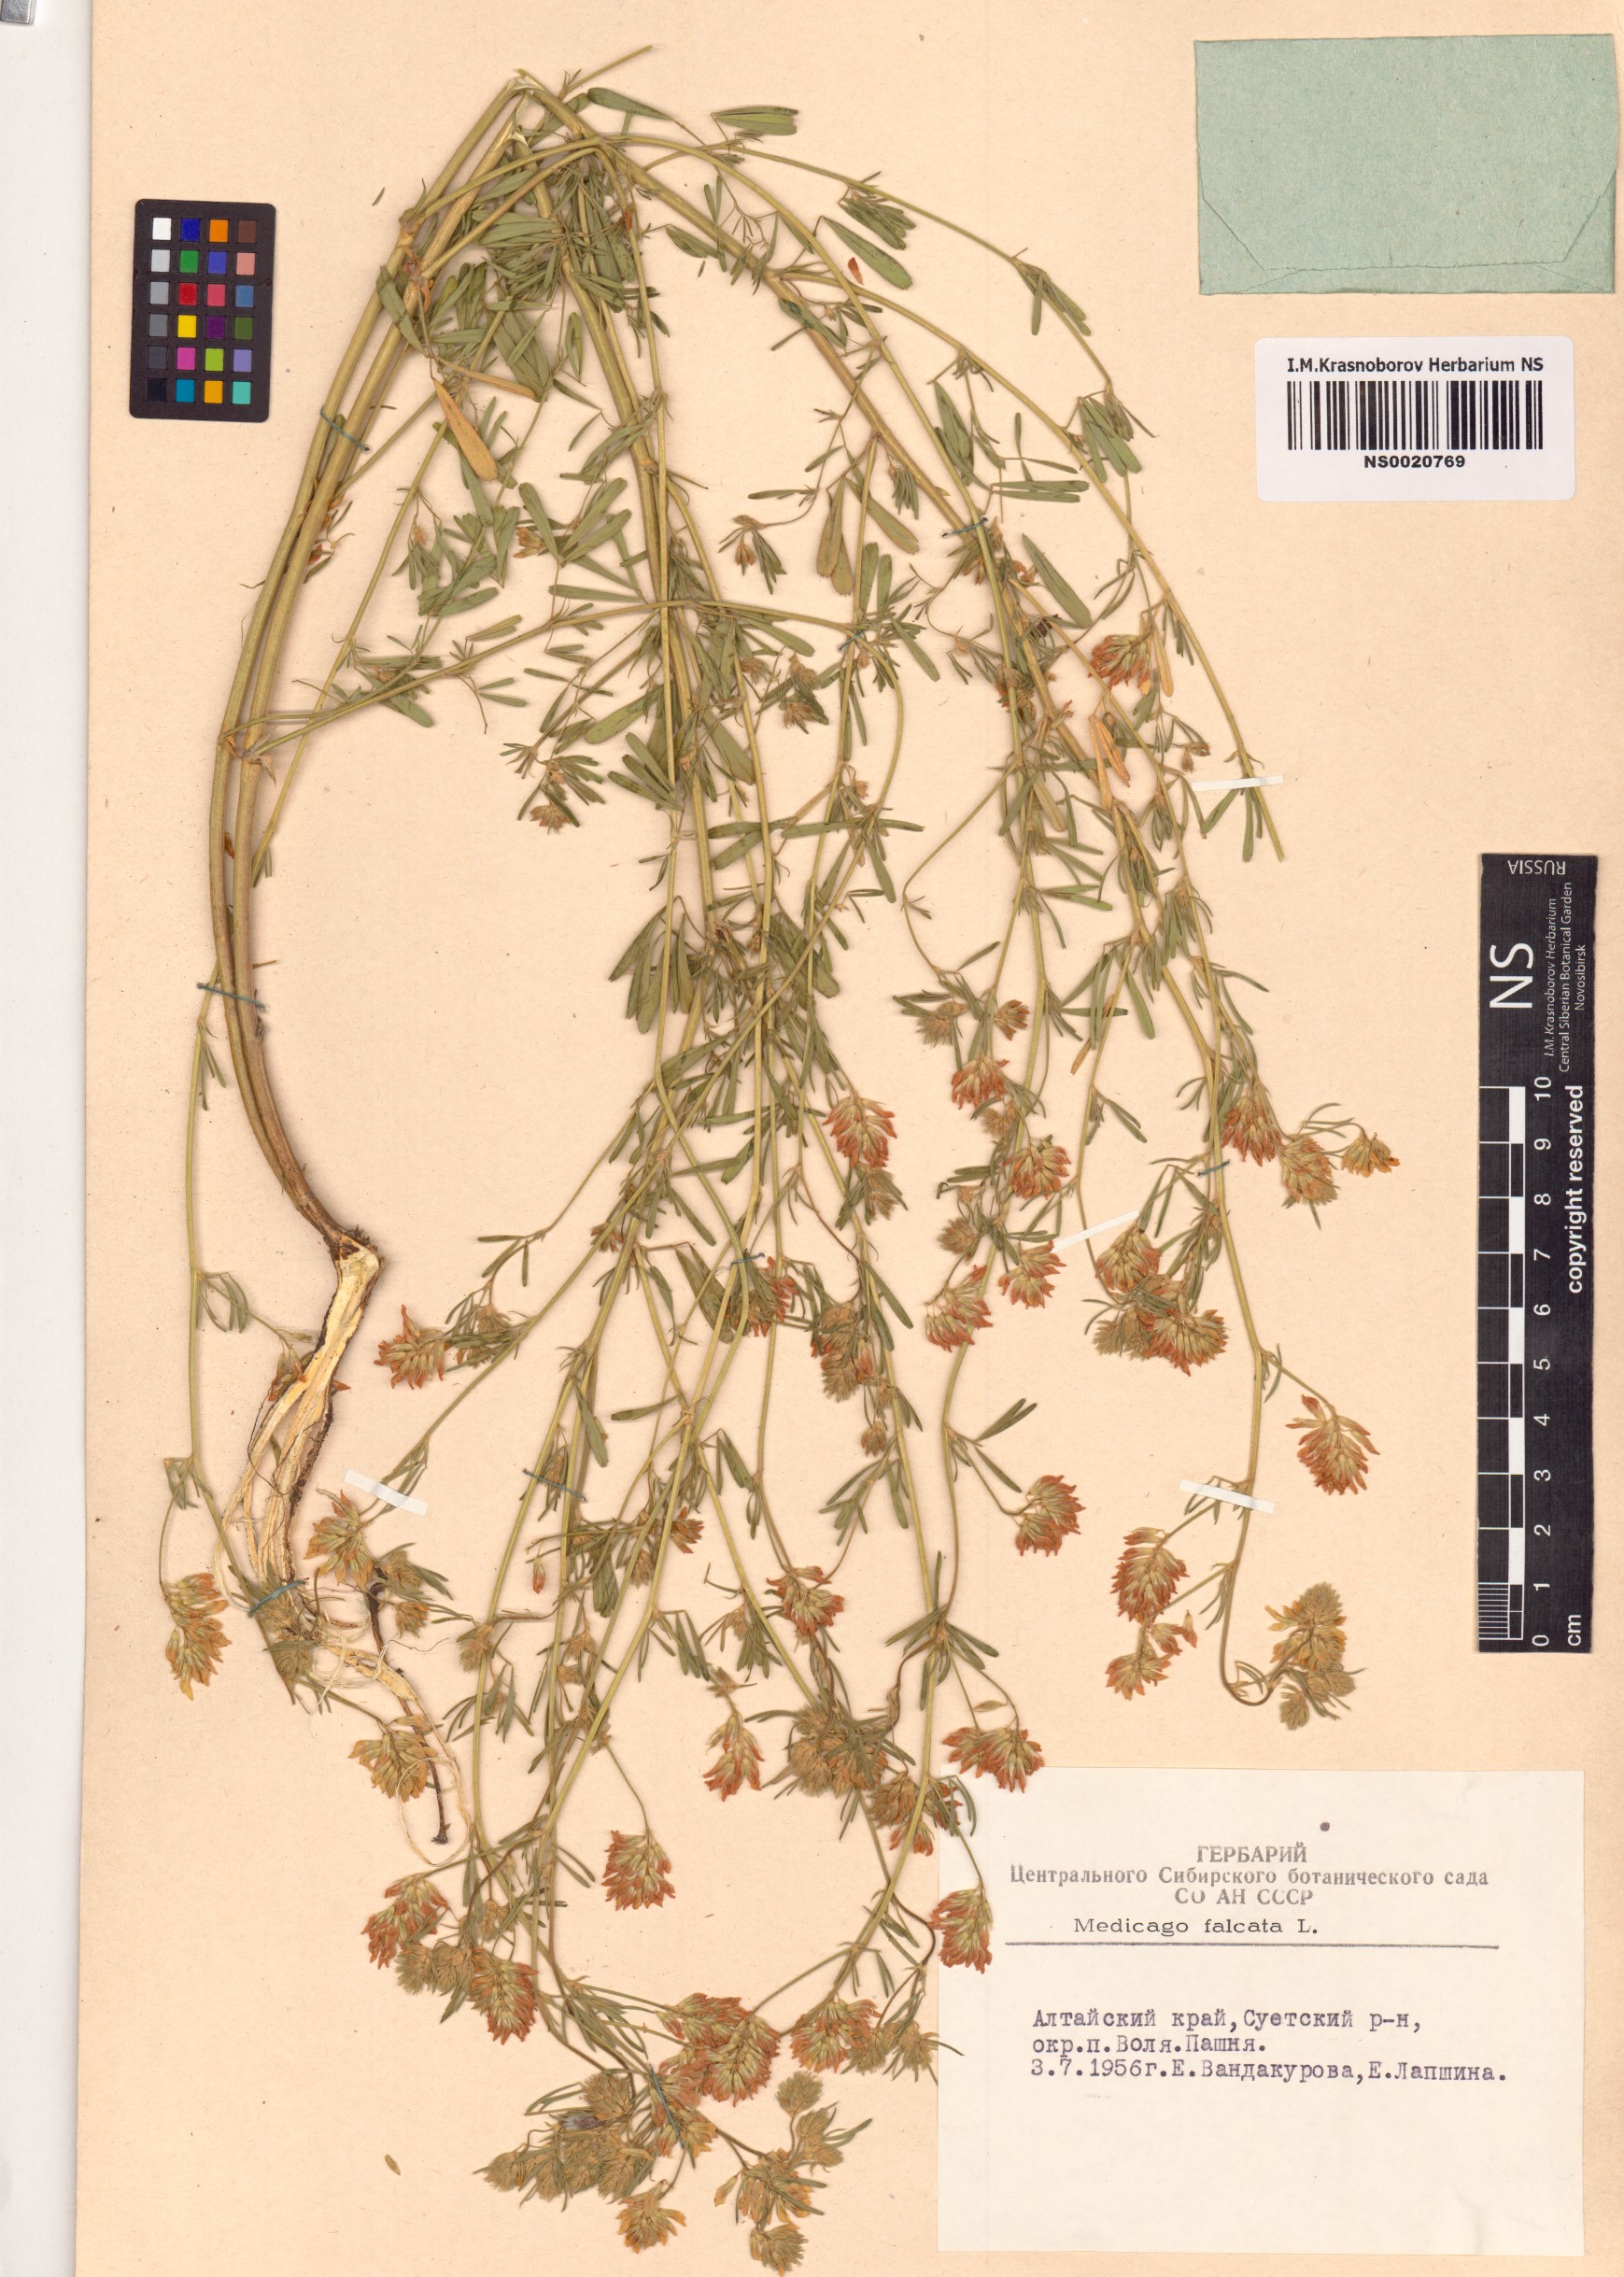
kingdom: Plantae
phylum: Tracheophyta
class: Magnoliopsida
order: Fabales
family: Fabaceae
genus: Medicago
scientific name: Medicago falcata
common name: Sickle medick
